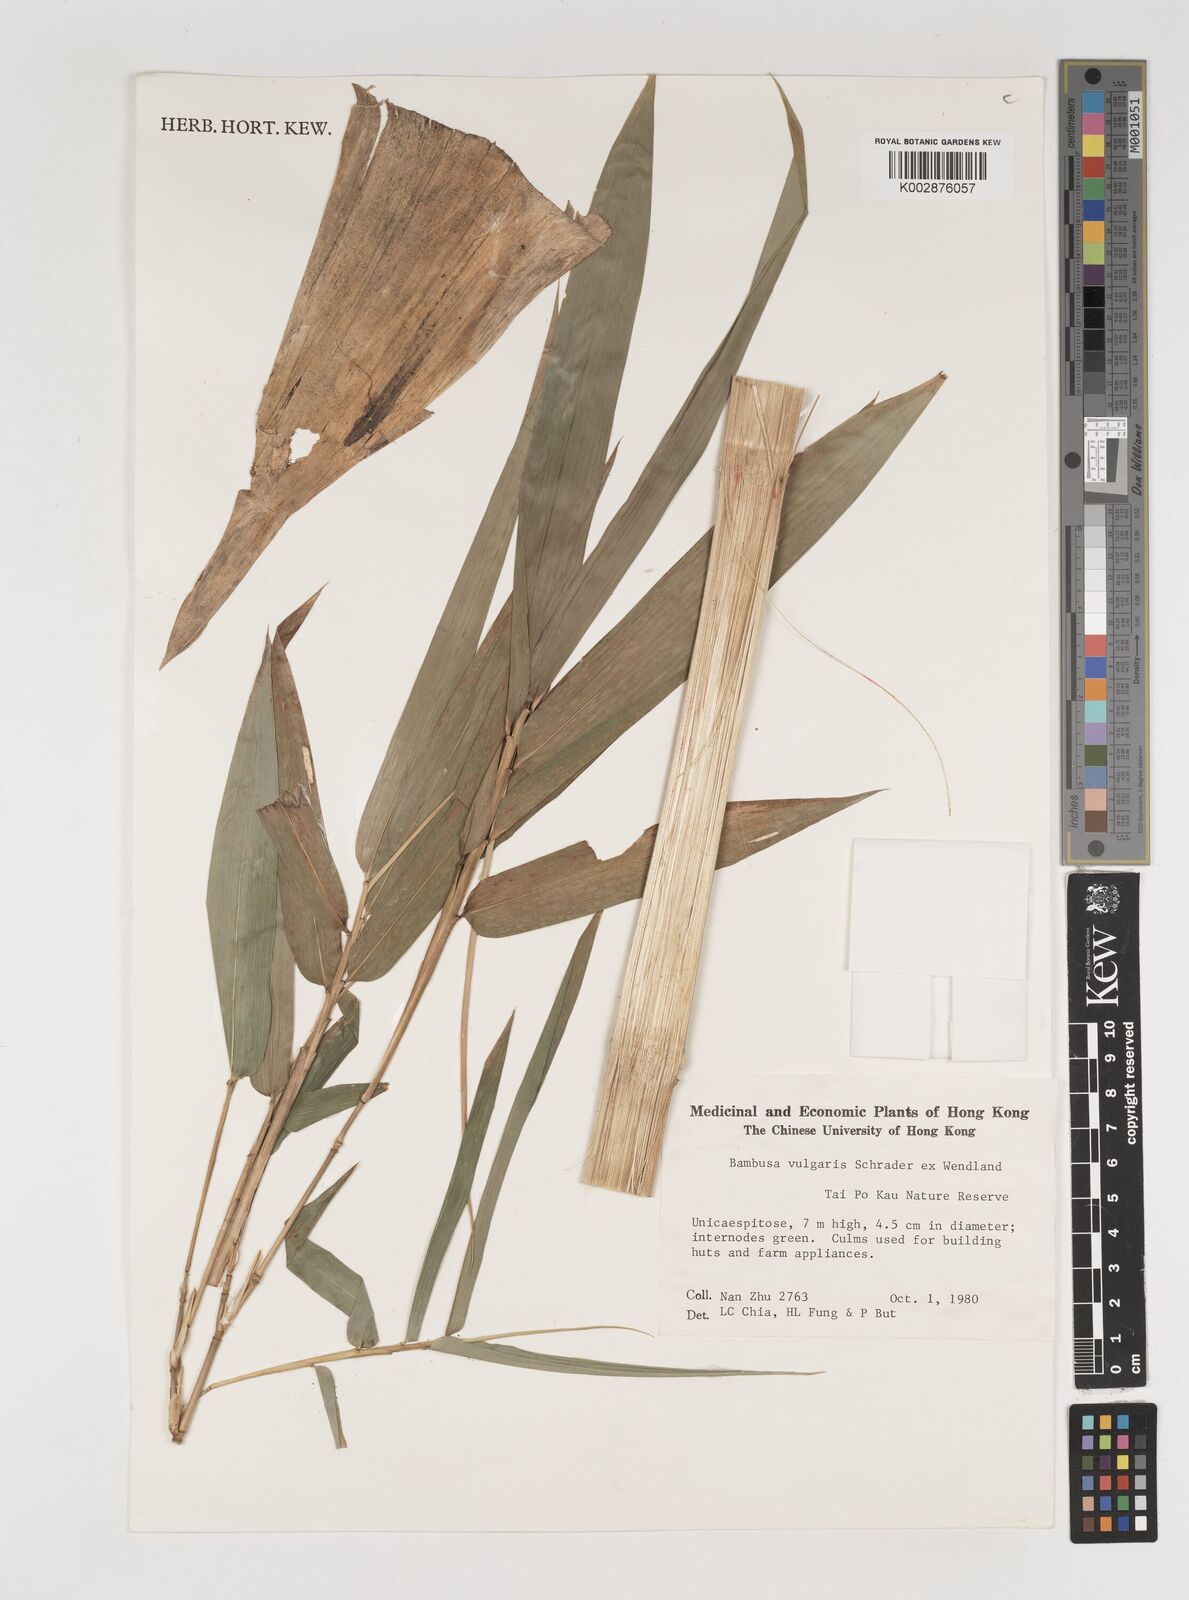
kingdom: Plantae
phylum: Tracheophyta
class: Liliopsida
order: Poales
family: Poaceae
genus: Bambusa
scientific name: Bambusa balcooa
